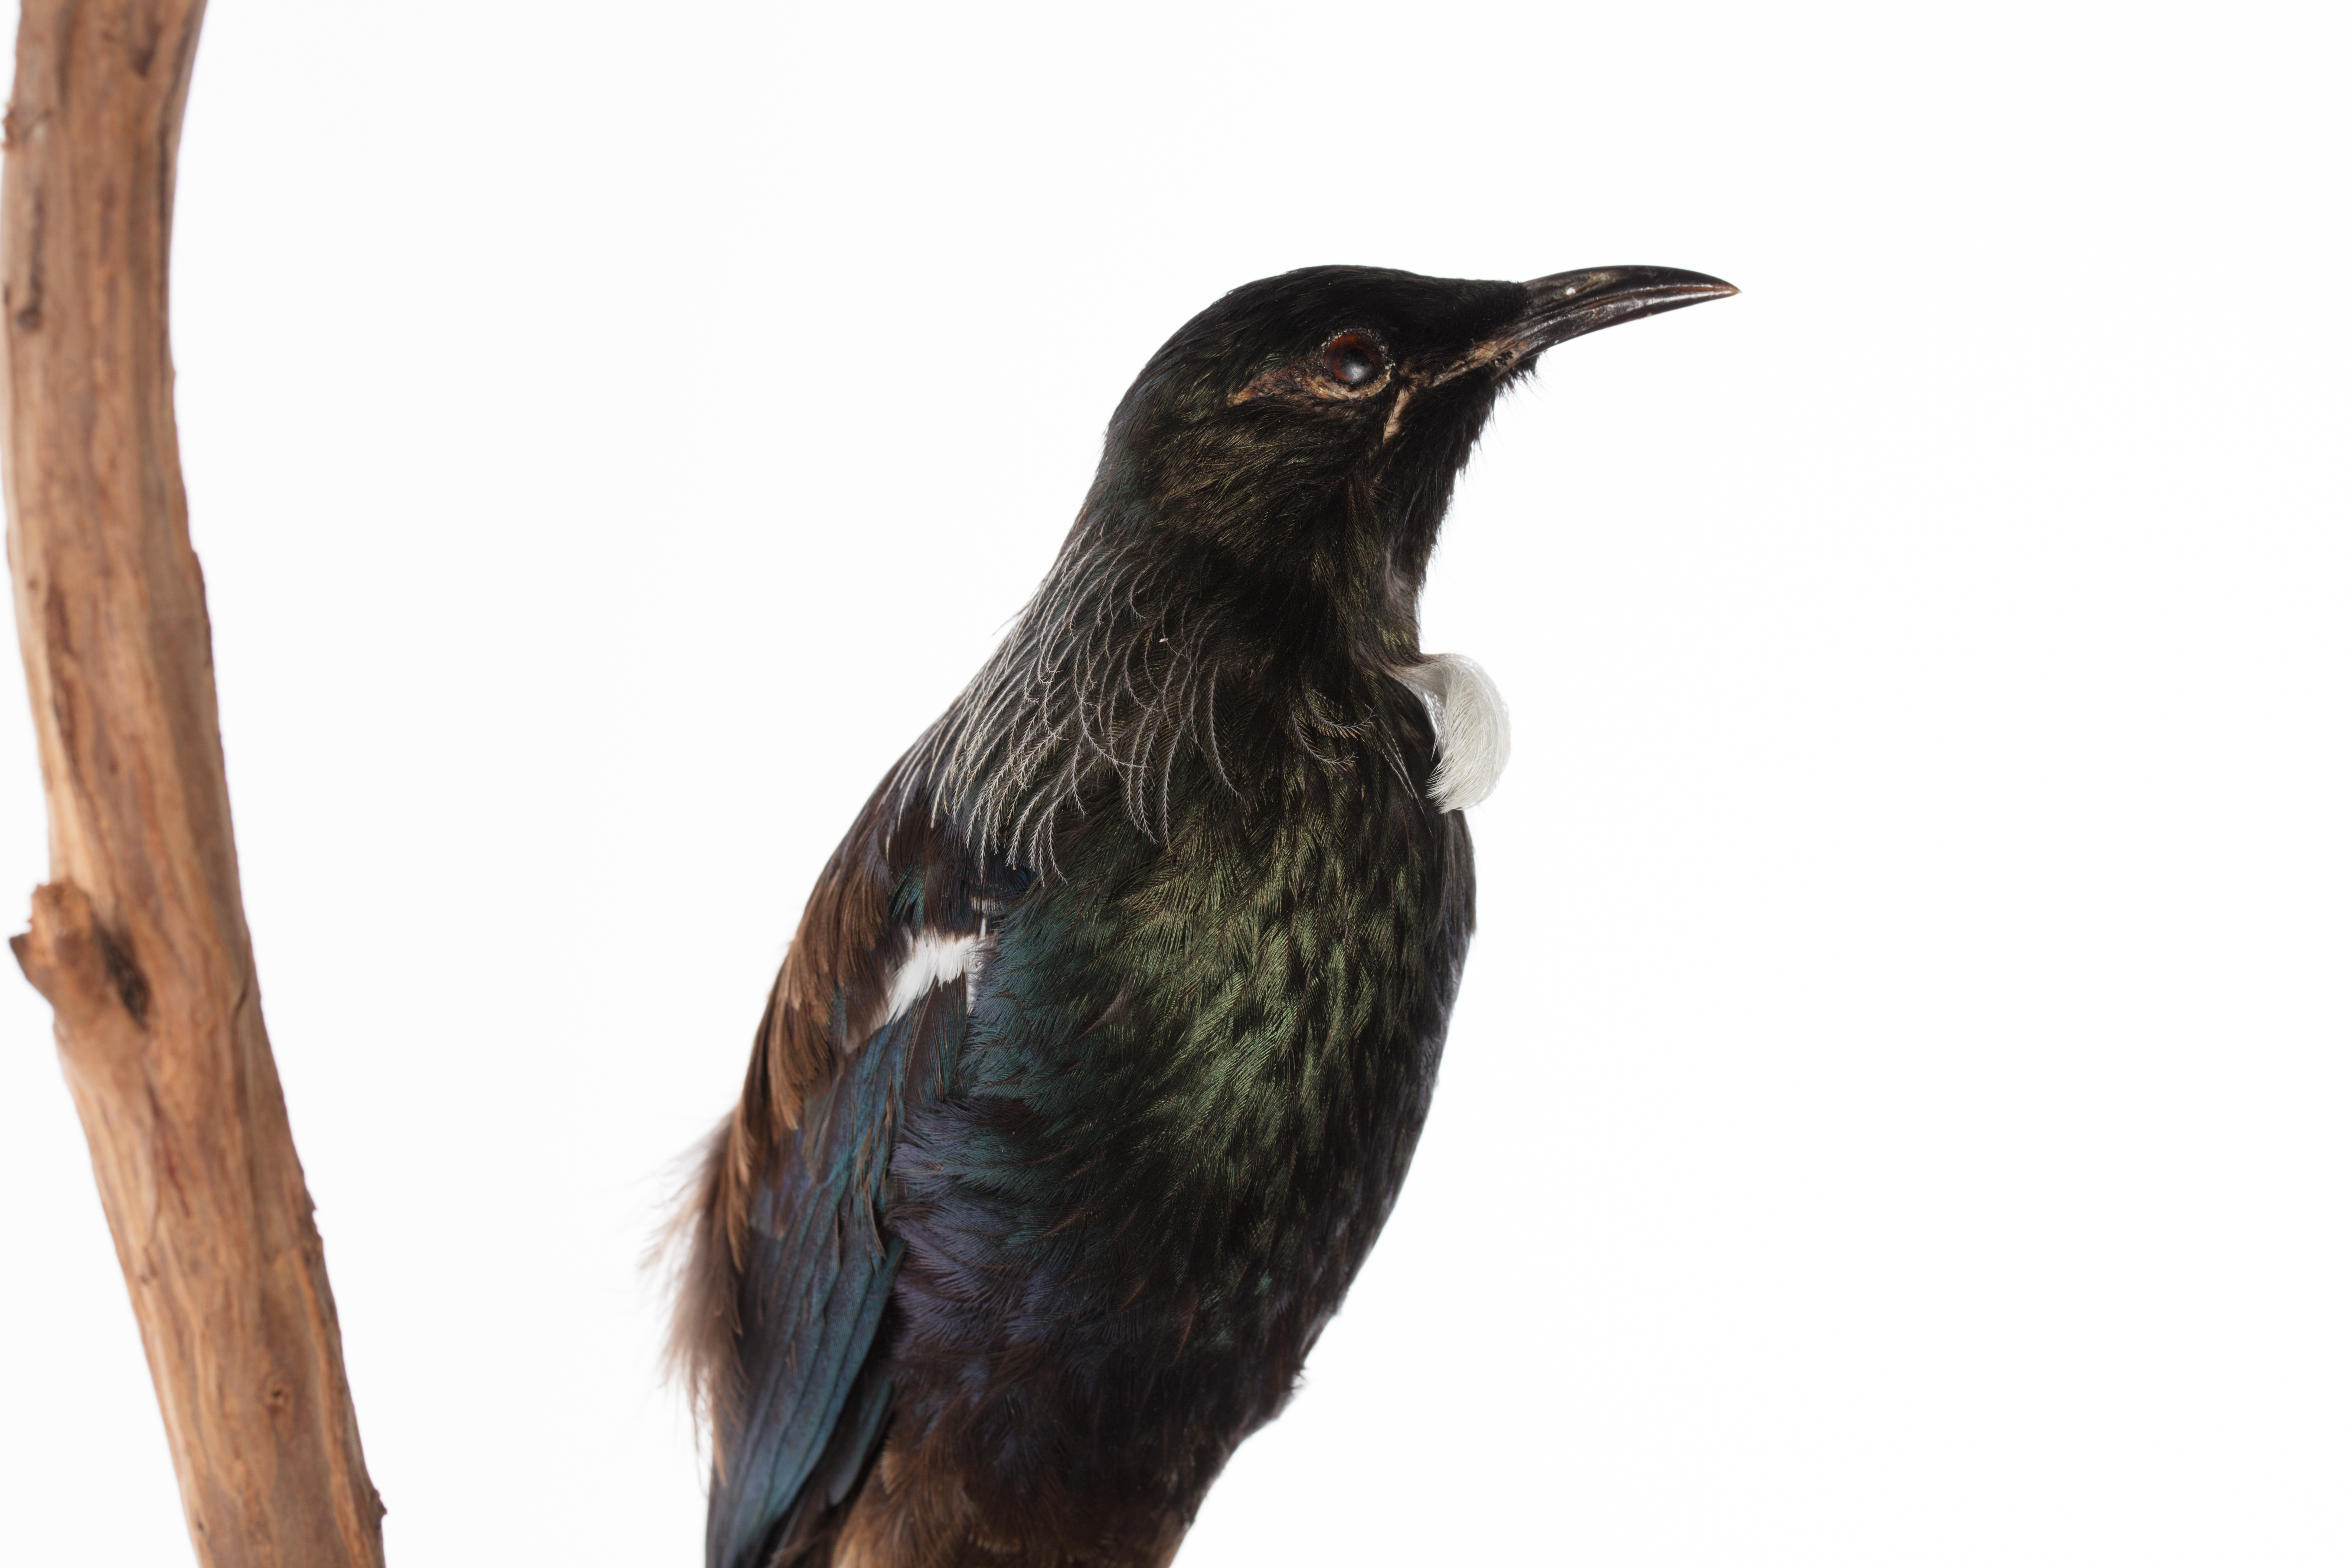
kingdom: Animalia
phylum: Chordata
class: Aves
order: Passeriformes
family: Meliphagidae
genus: Prosthemadera
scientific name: Prosthemadera novaeseelandiae
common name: Tui
